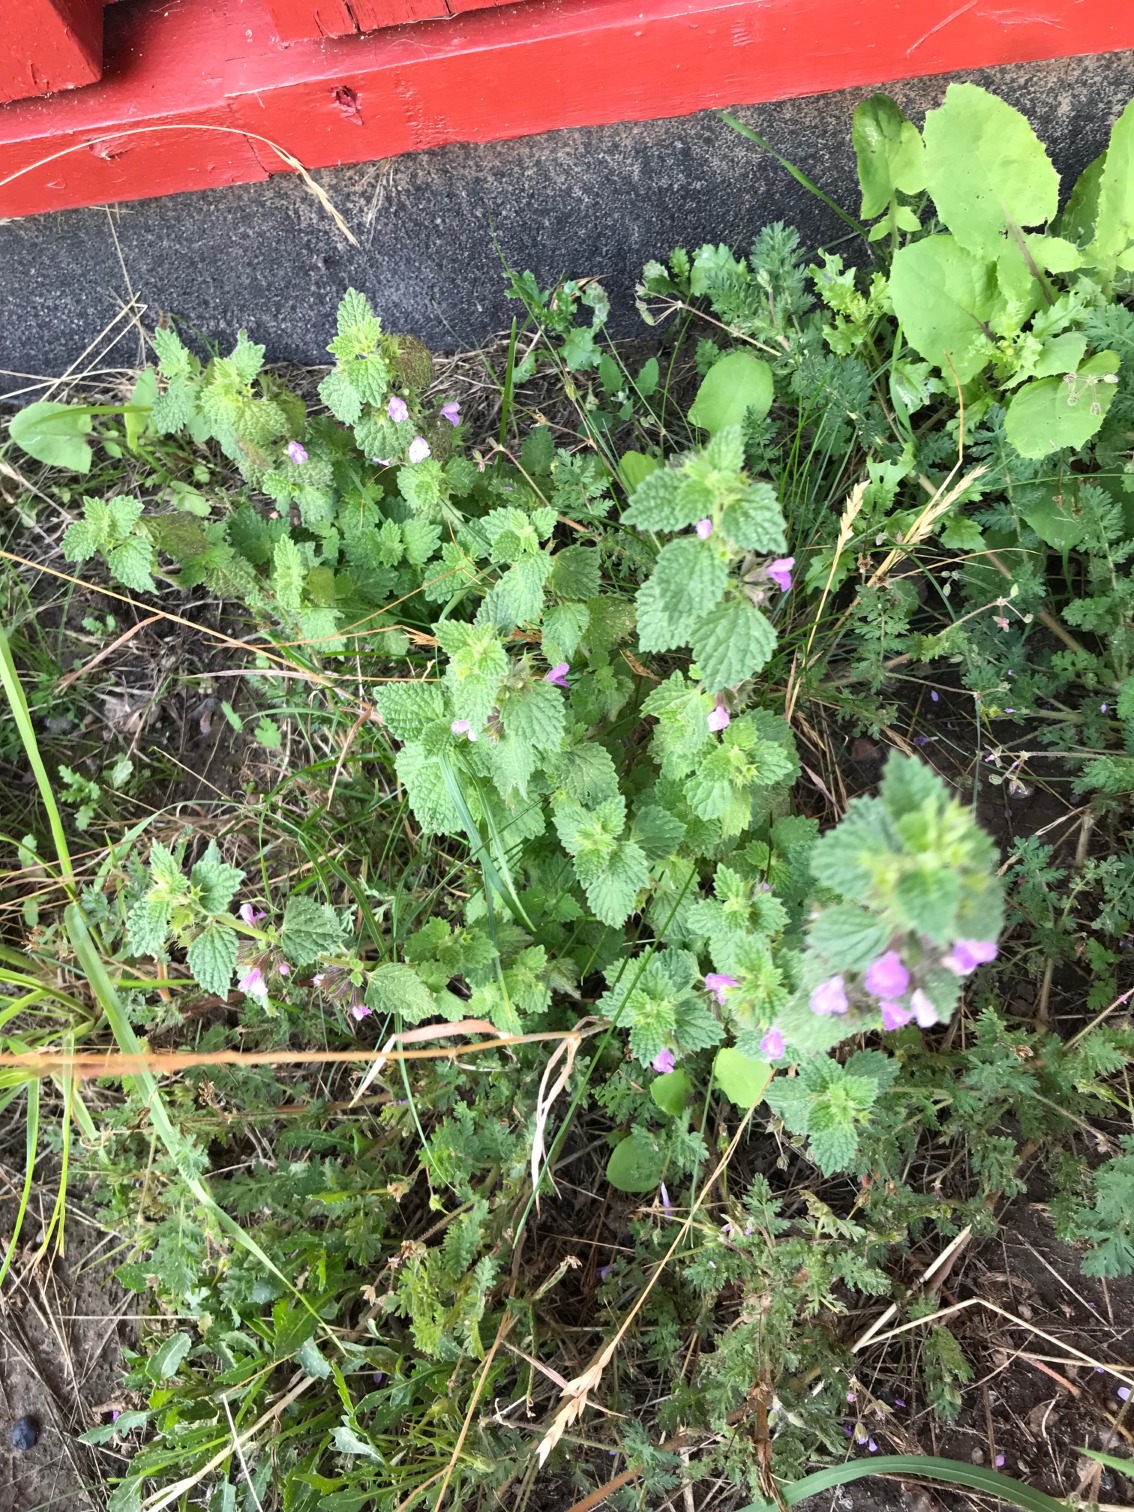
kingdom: Plantae
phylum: Tracheophyta
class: Magnoliopsida
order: Lamiales
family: Lamiaceae
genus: Ballota
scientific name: Ballota nigra
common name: Tandbæger
